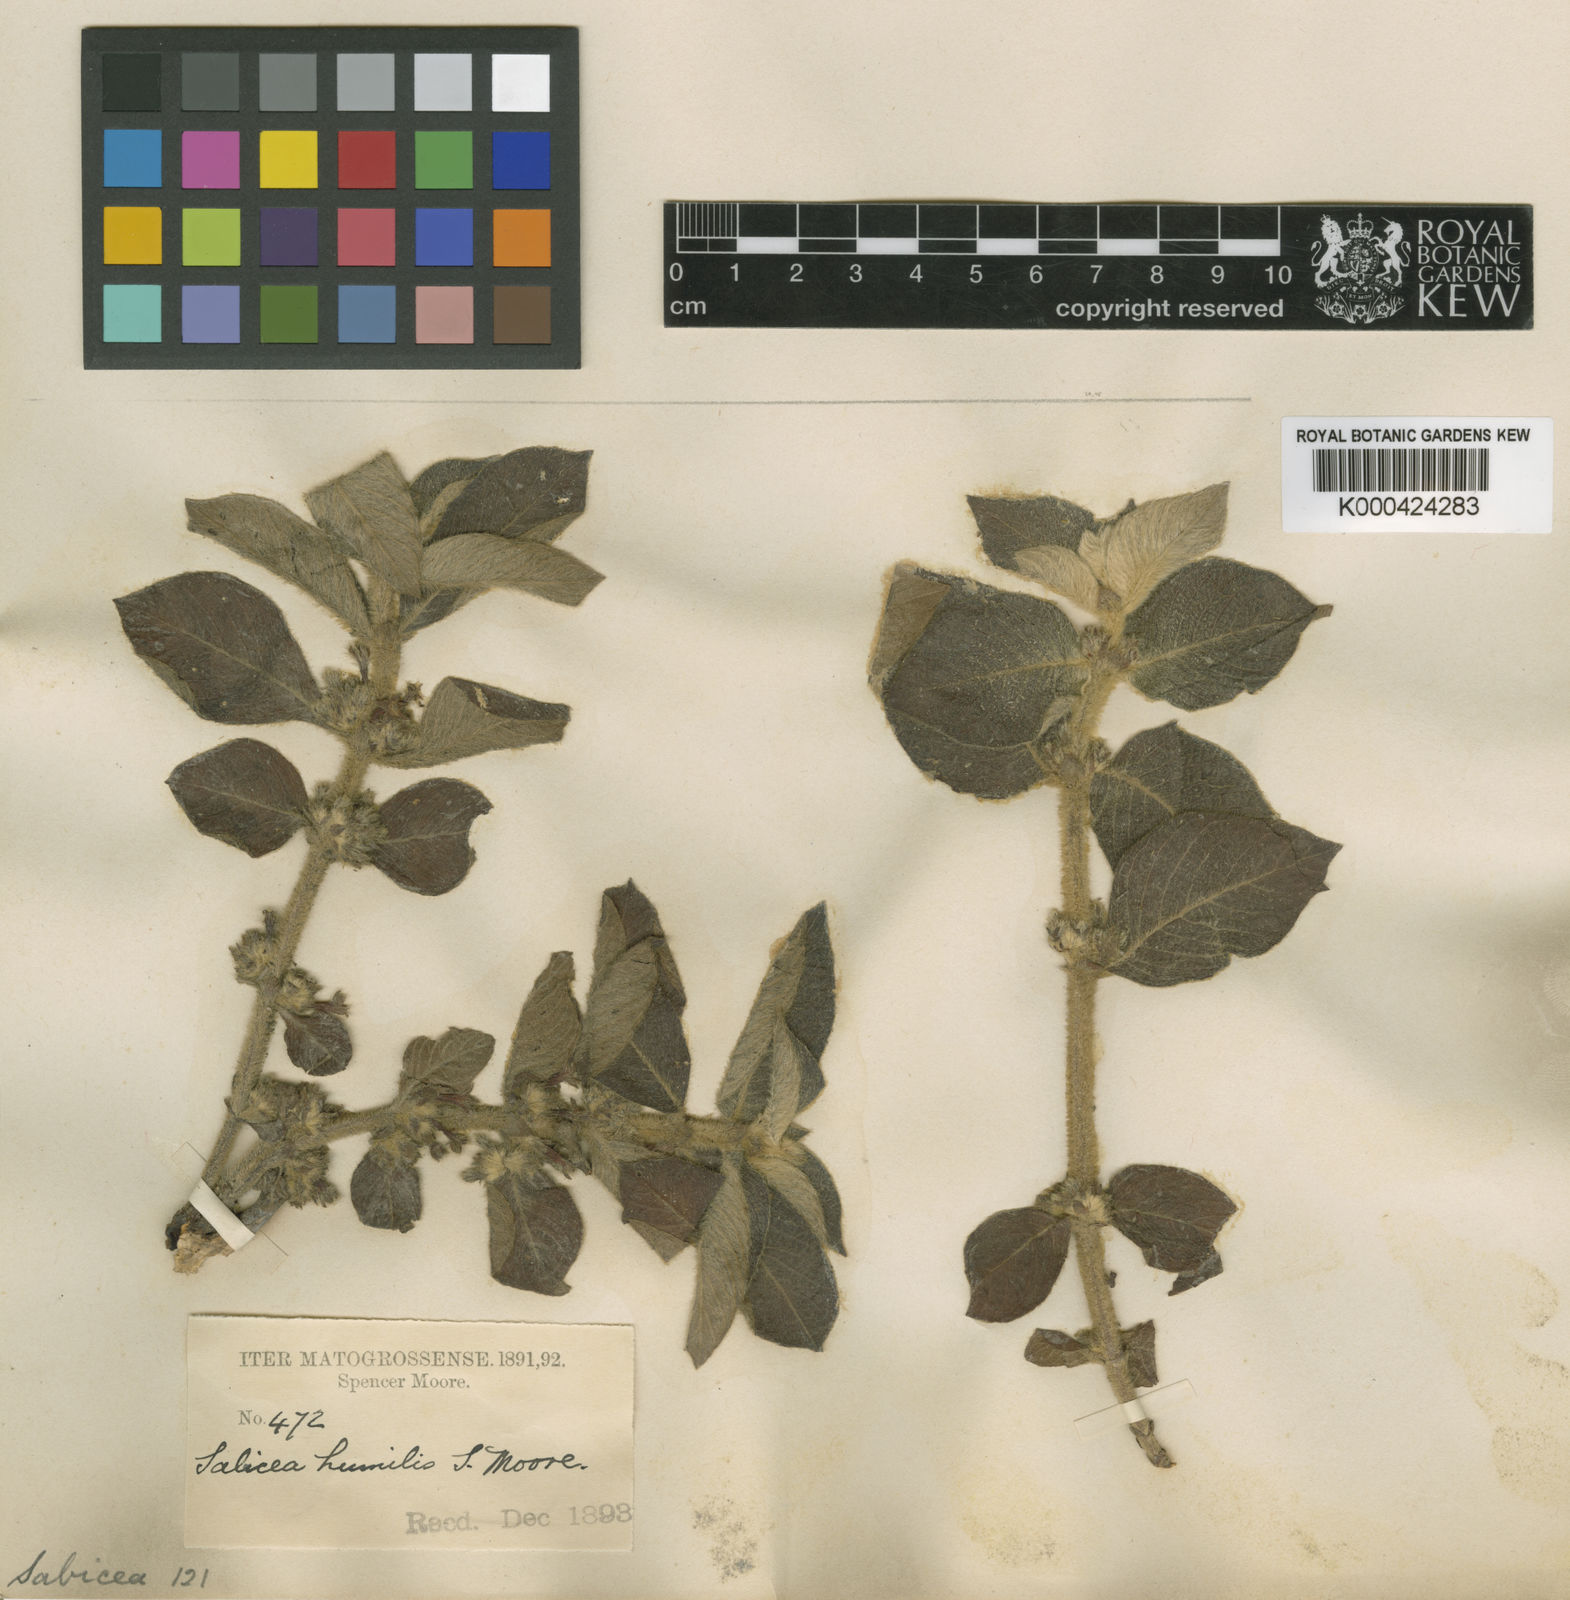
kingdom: Plantae
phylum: Tracheophyta
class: Magnoliopsida
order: Gentianales
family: Rubiaceae
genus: Sabicea
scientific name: Sabicea humilis
